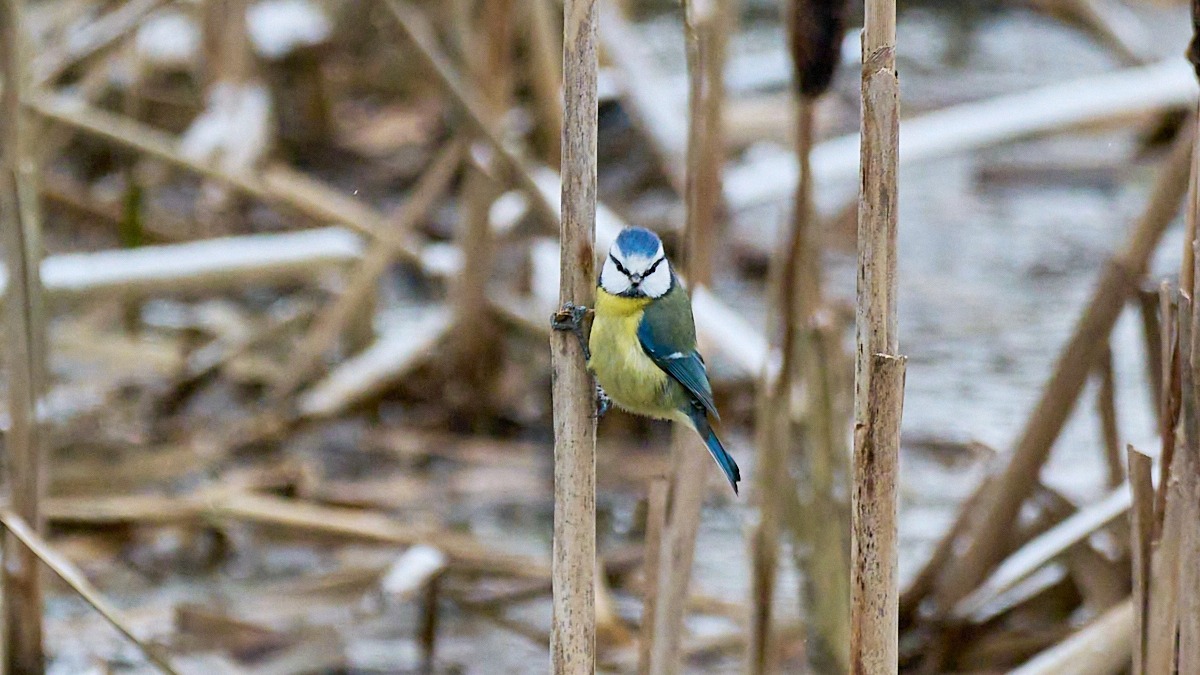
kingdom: Animalia
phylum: Chordata
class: Aves
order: Passeriformes
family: Paridae
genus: Cyanistes
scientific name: Cyanistes caeruleus
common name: Blåmejse
